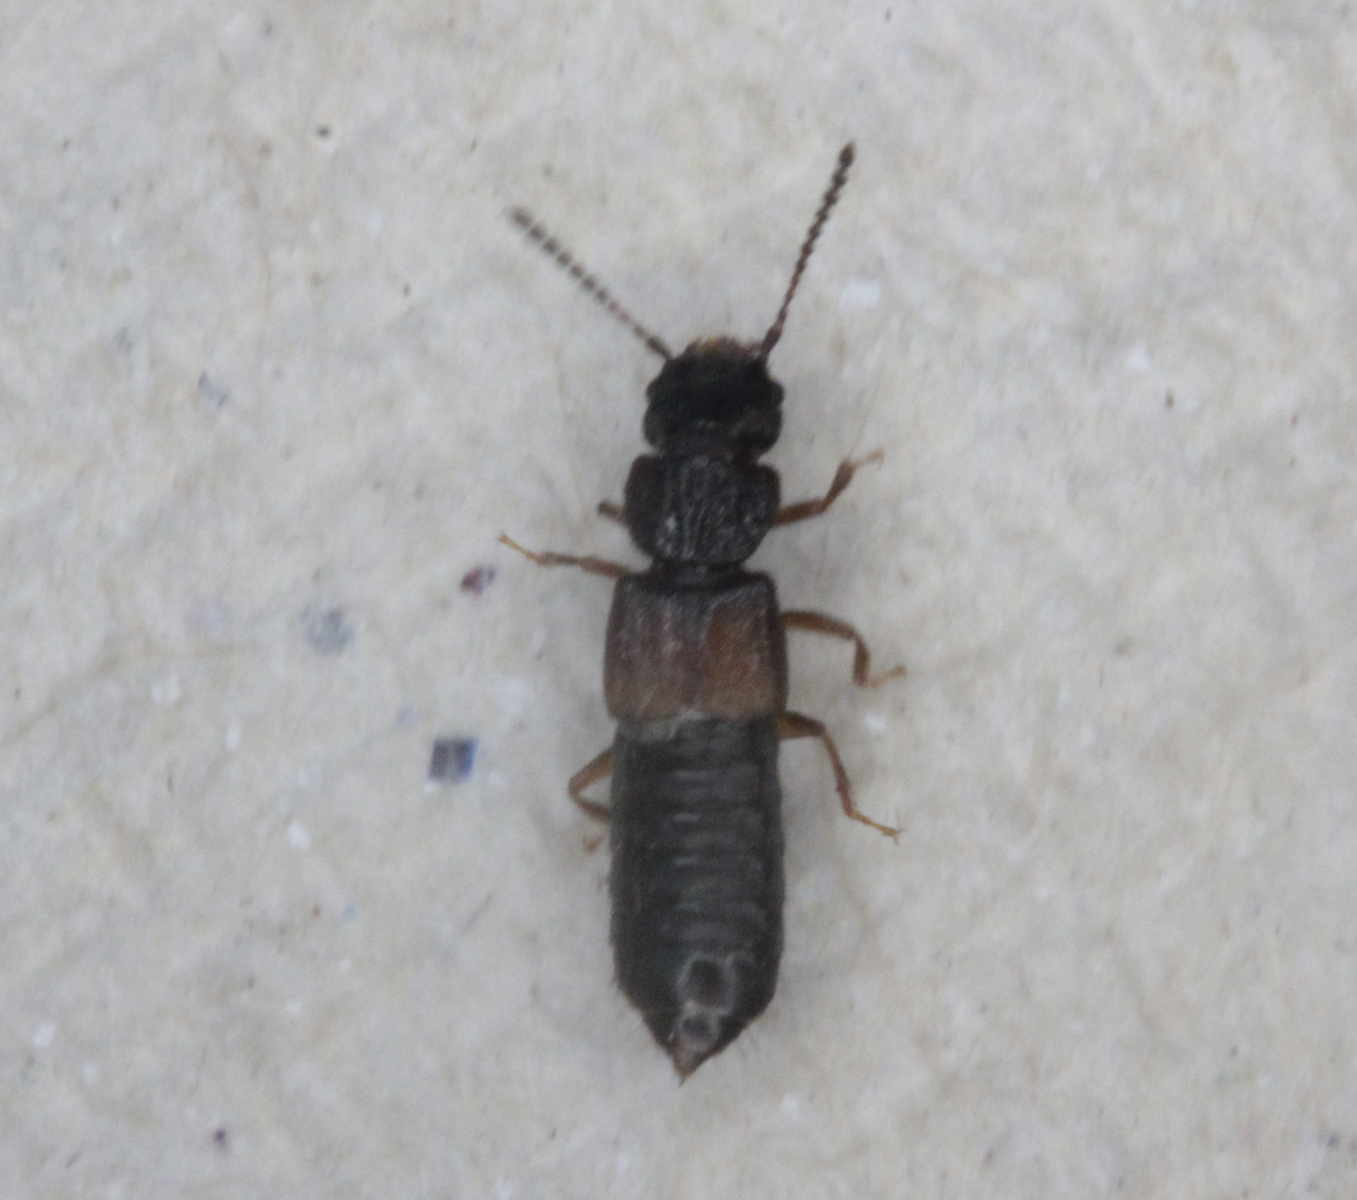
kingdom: Animalia
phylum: Arthropoda
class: Insecta
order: Coleoptera
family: Staphylinidae
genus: Anotylus
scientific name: Anotylus rugosus
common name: Rove beetle
